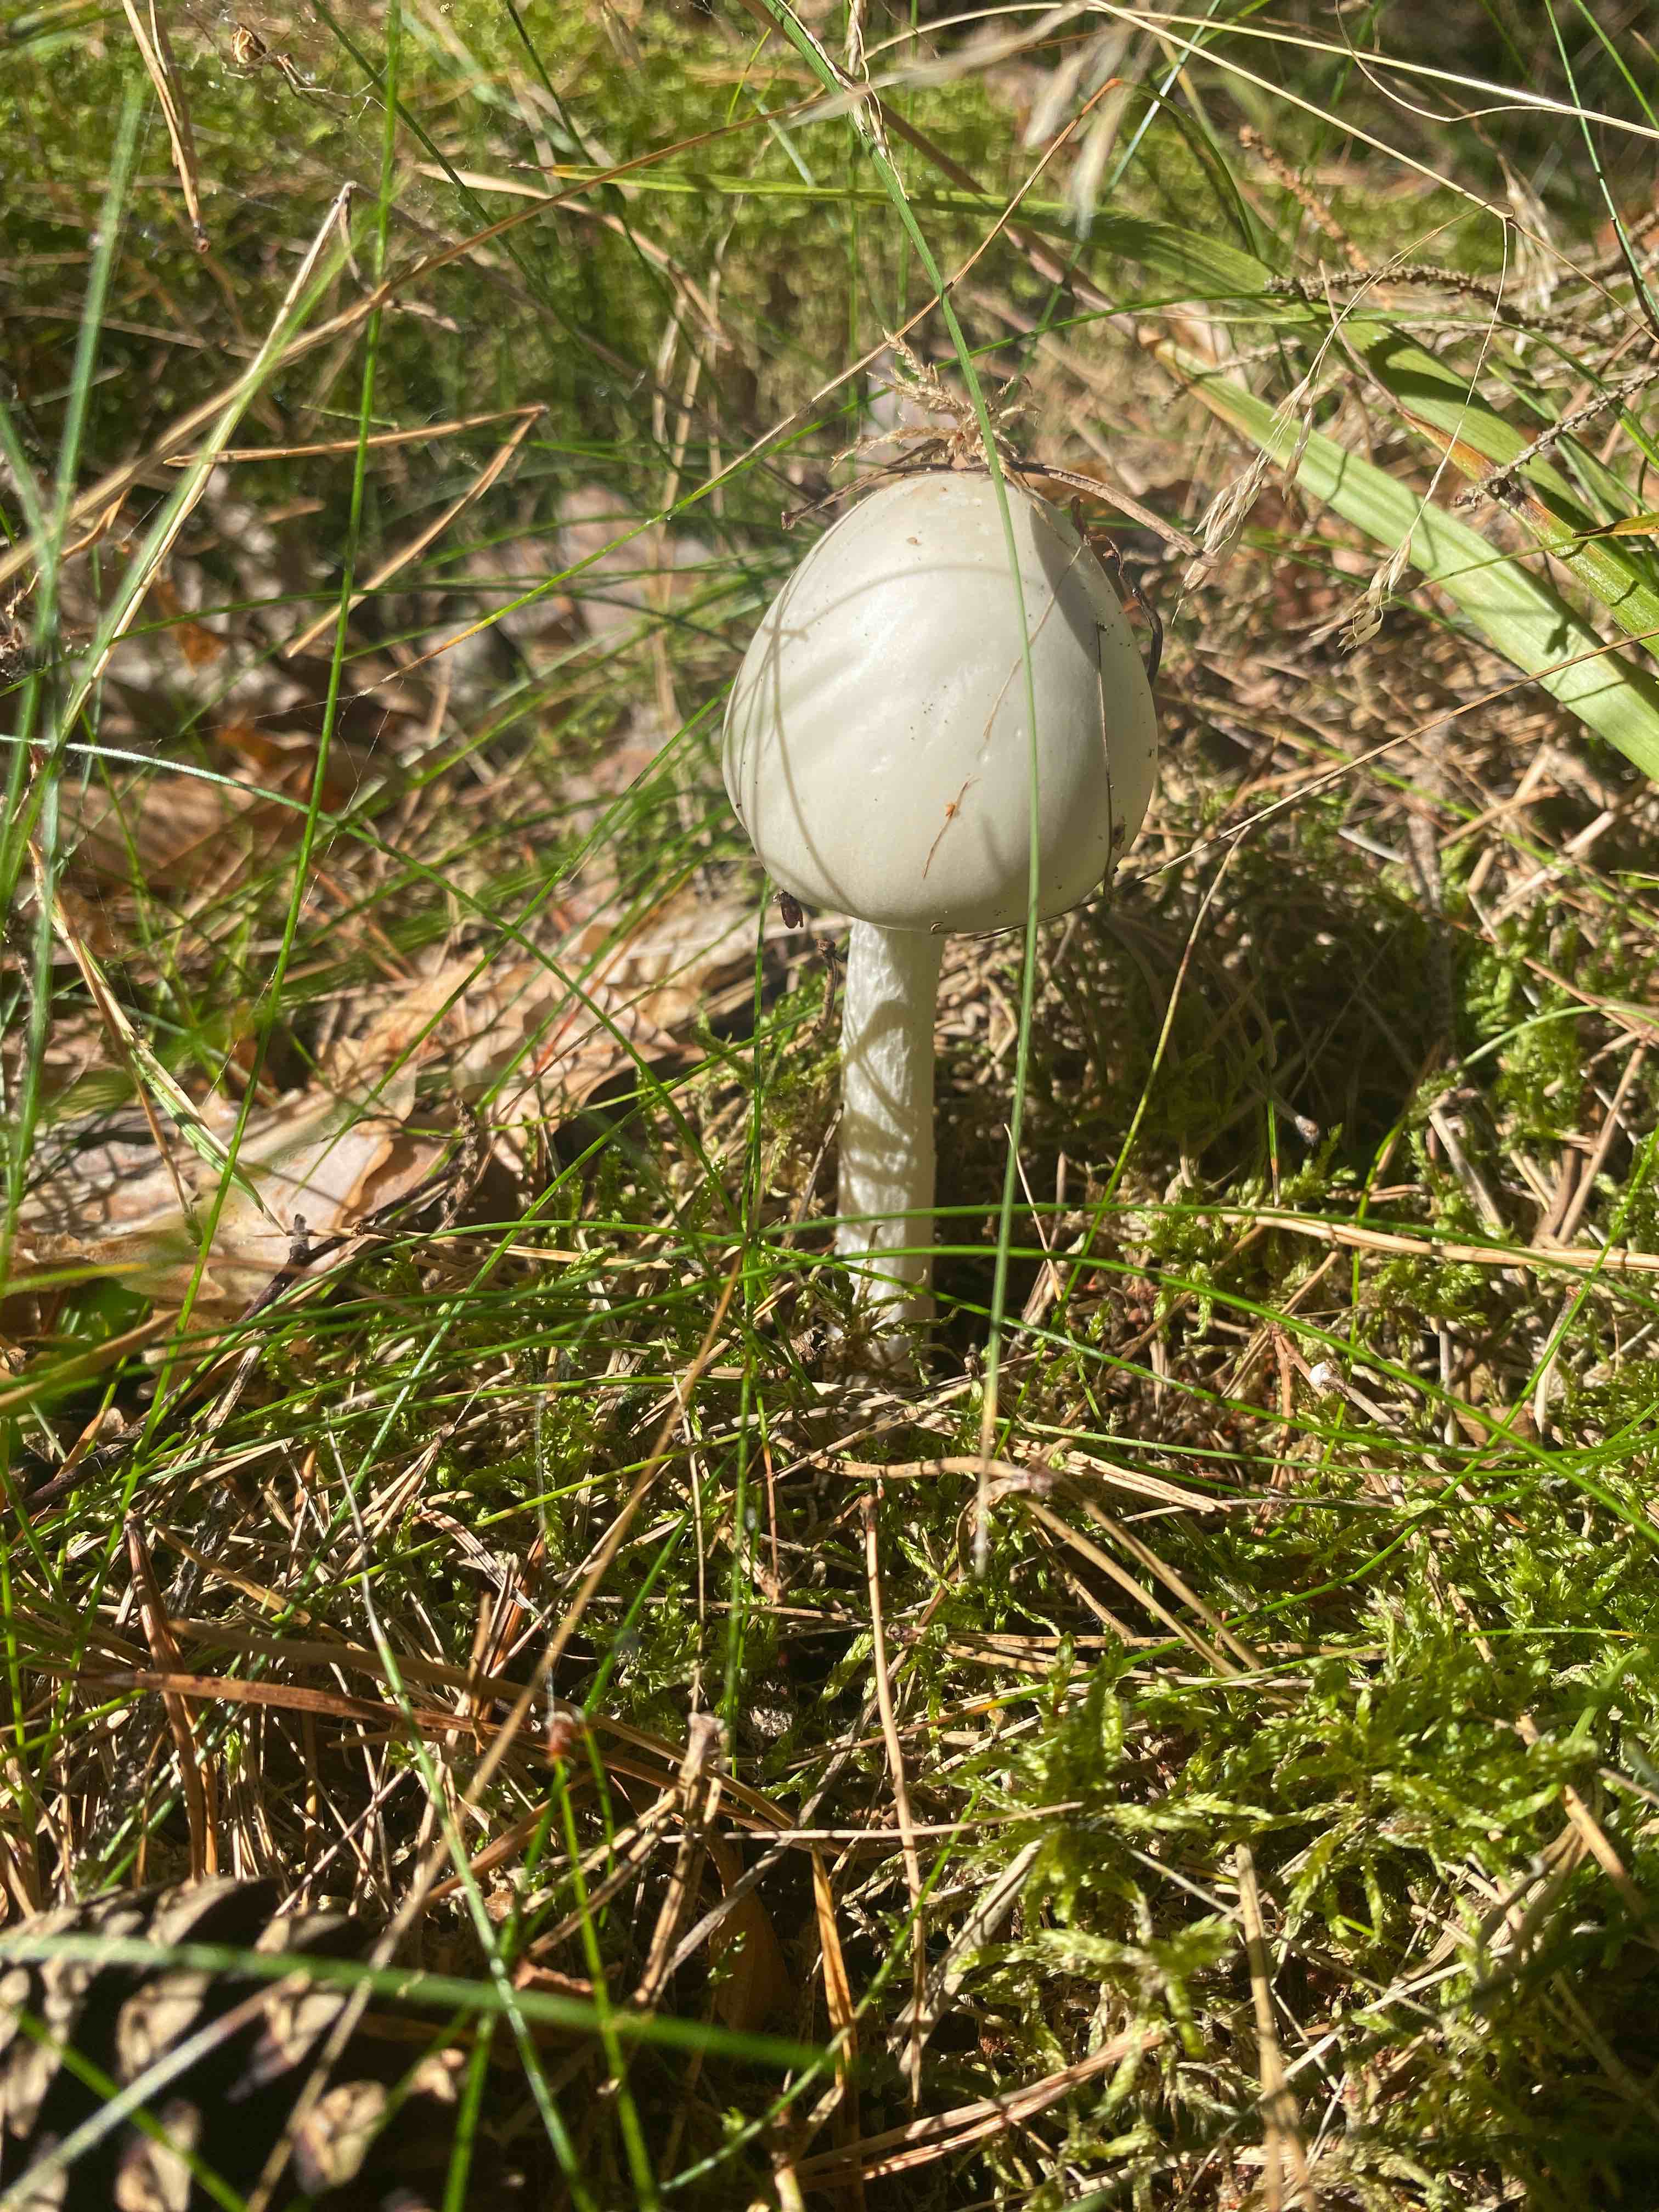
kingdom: Fungi
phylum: Basidiomycota
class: Agaricomycetes
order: Agaricales
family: Amanitaceae
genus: Amanita
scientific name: Amanita virosa
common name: snehvid fluesvamp
